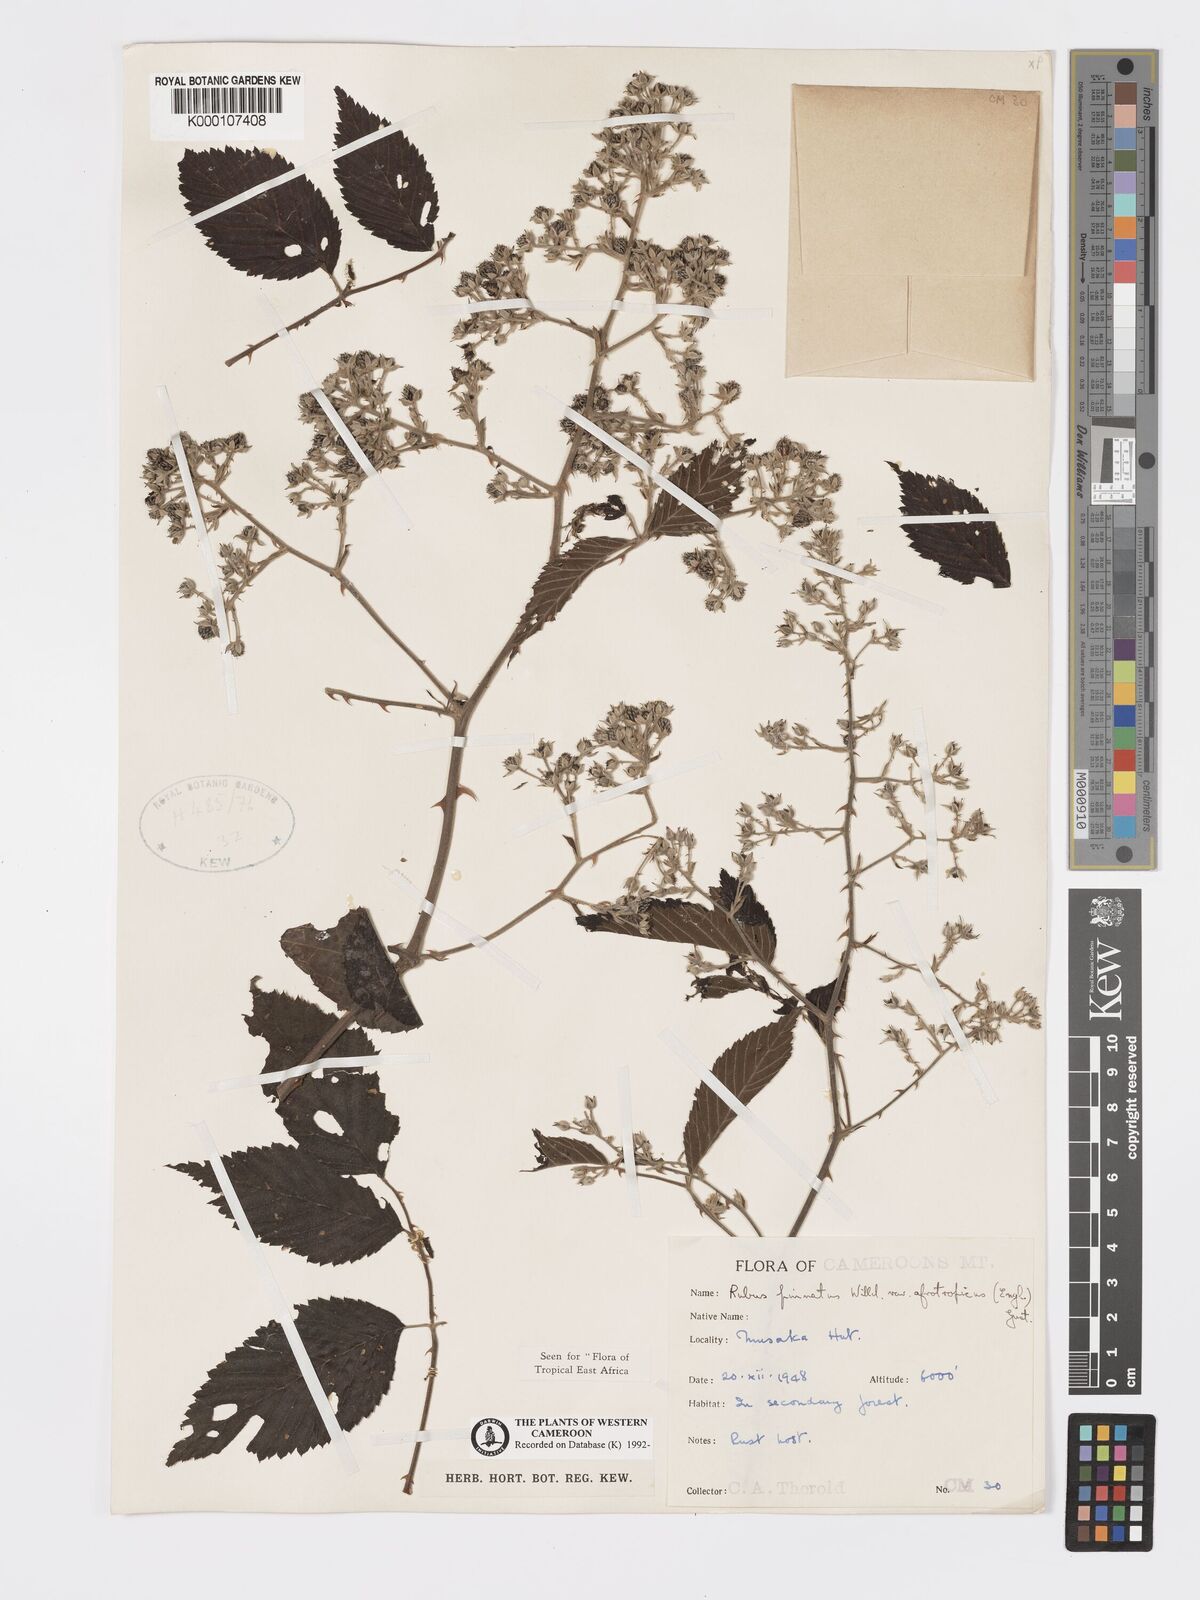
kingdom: Plantae
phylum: Tracheophyta
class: Magnoliopsida
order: Rosales
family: Rosaceae
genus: Rubus
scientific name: Rubus pinnatus
